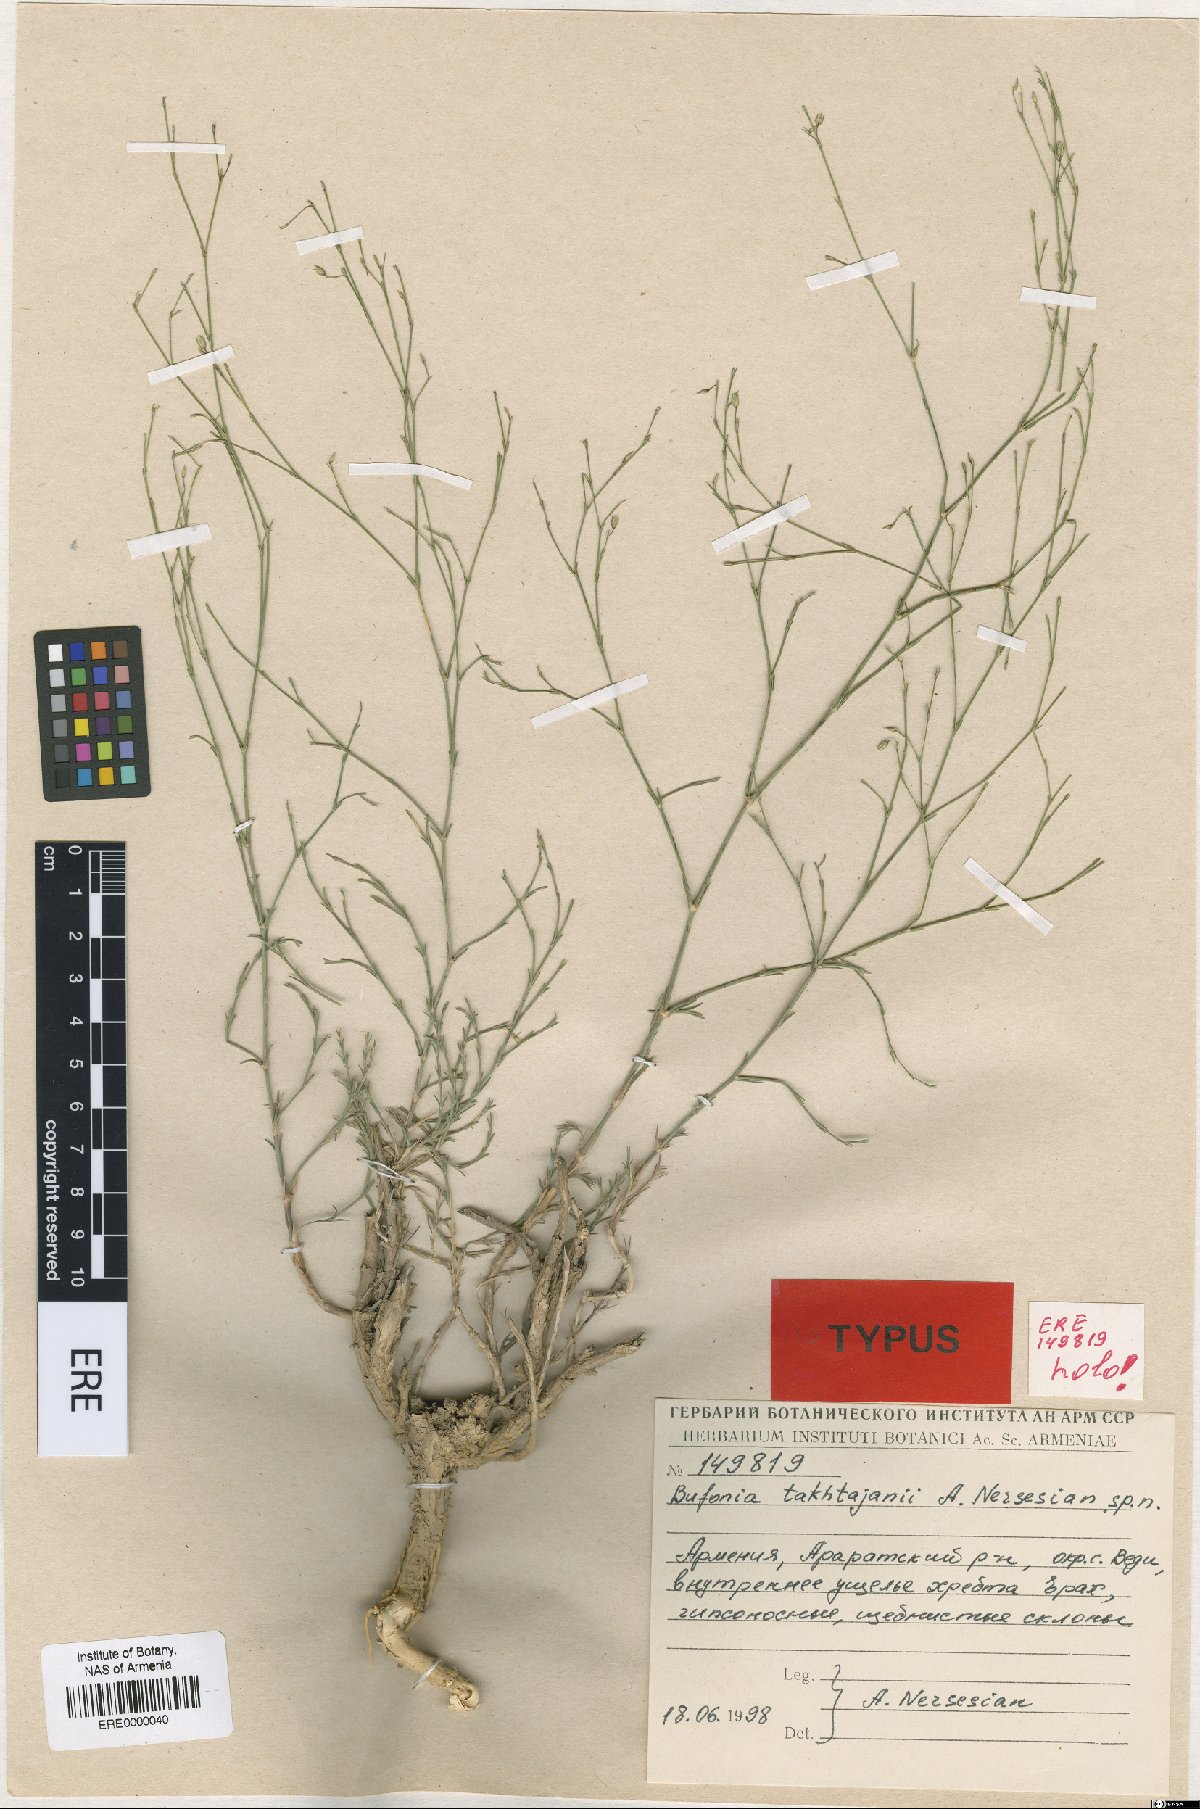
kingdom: Plantae
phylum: Tracheophyta
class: Magnoliopsida
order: Caryophyllales
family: Caryophyllaceae
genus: Bufonia
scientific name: Bufonia takhtajanii
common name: Takhtadjyan's bufonia
